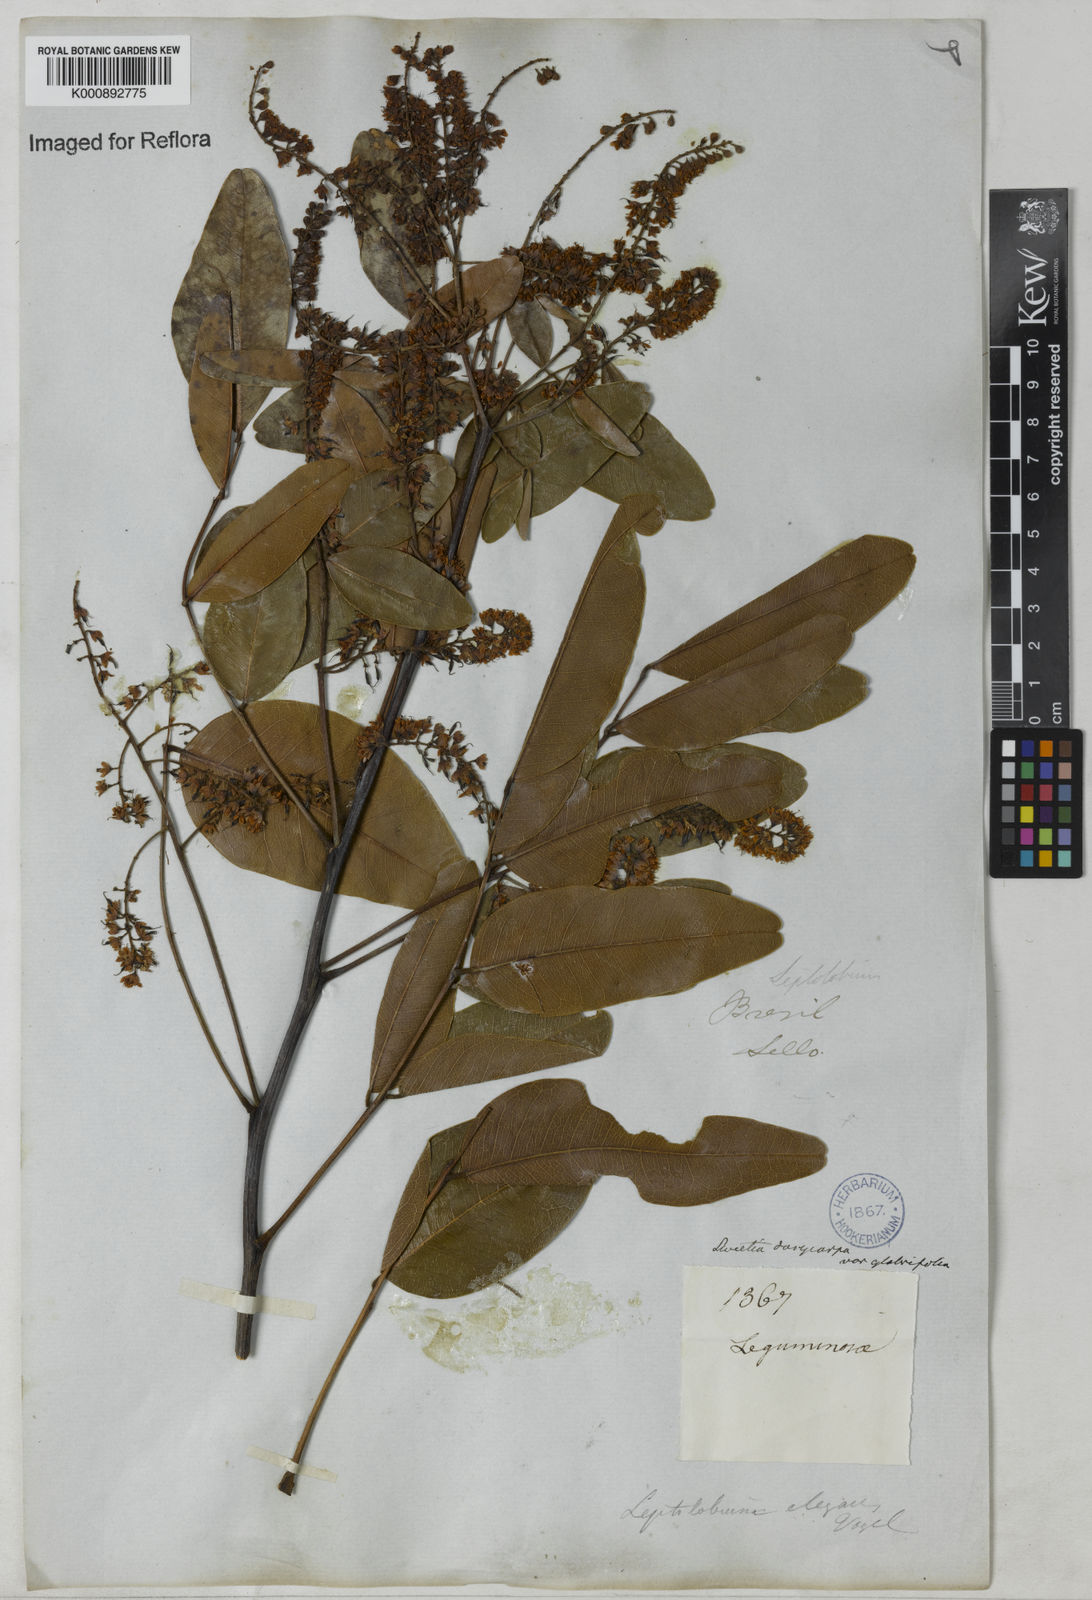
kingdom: Plantae
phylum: Tracheophyta
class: Magnoliopsida
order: Fabales
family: Fabaceae
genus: Leptolobium
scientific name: Leptolobium
